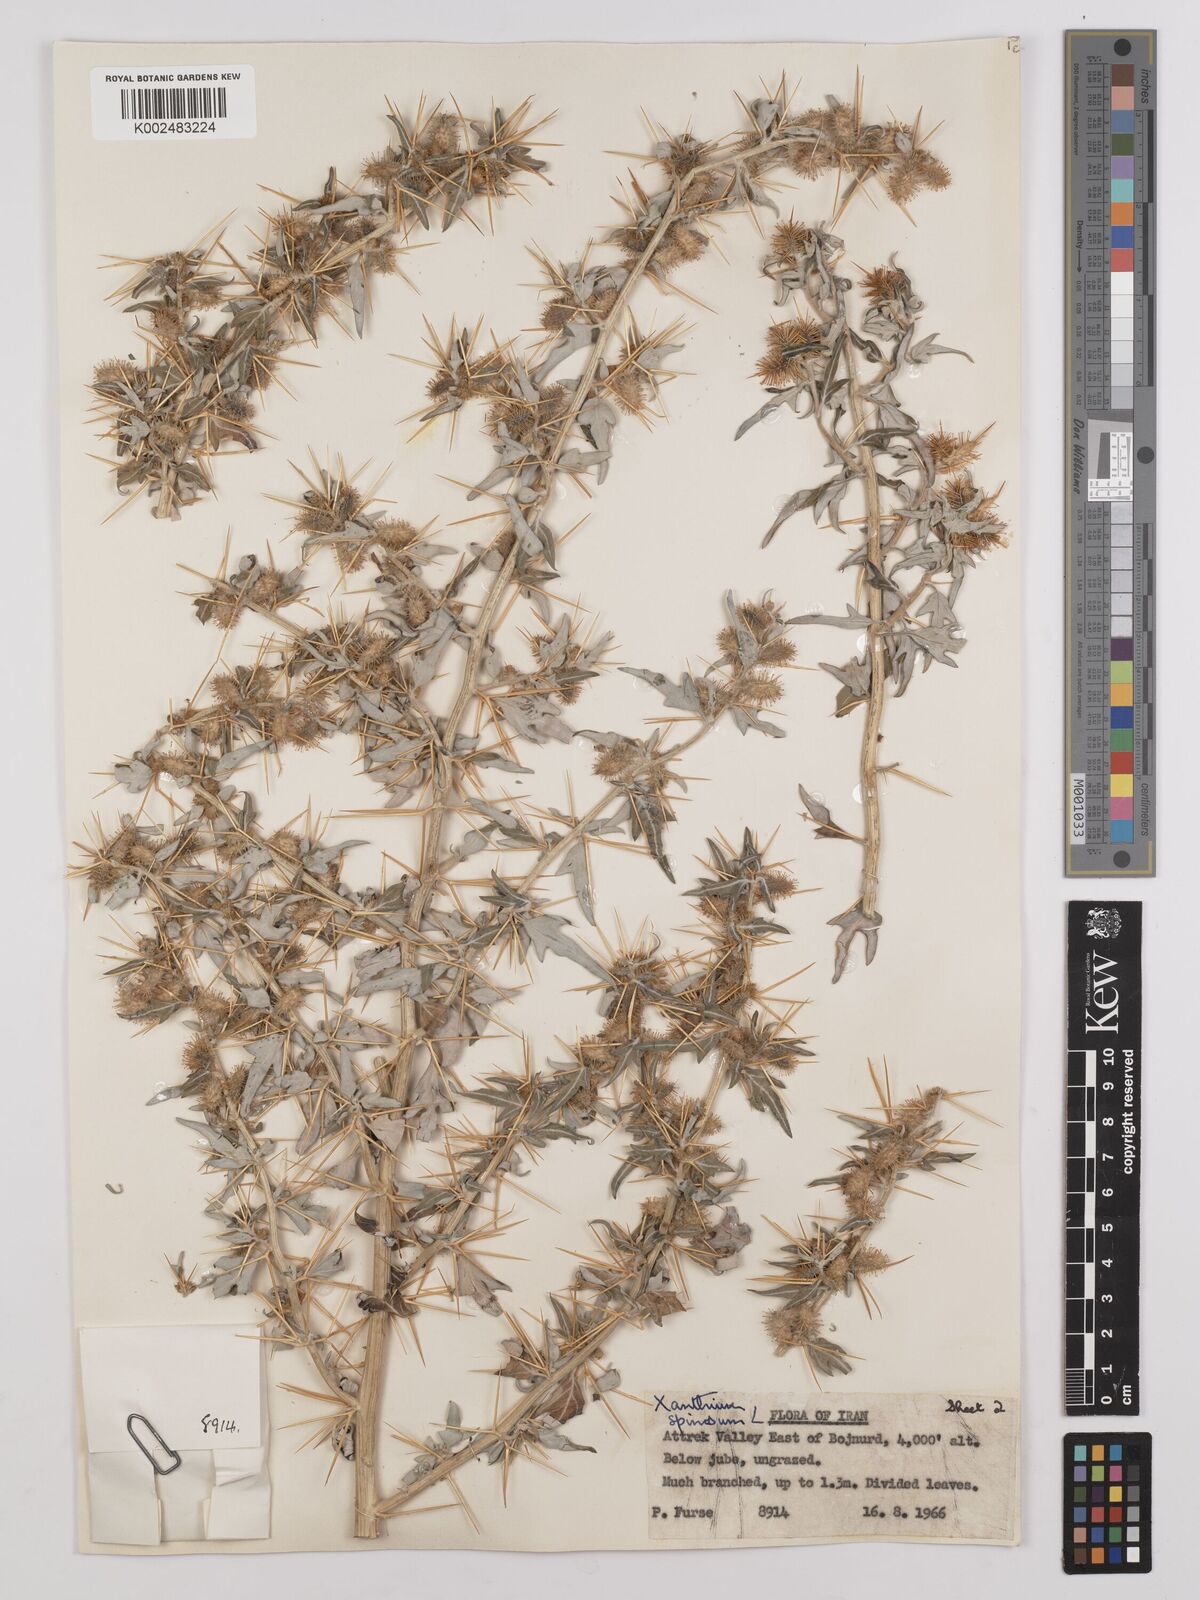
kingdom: Plantae
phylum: Tracheophyta
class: Magnoliopsida
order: Asterales
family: Asteraceae
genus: Xanthium
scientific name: Xanthium spinosum
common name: Spiny cocklebur
